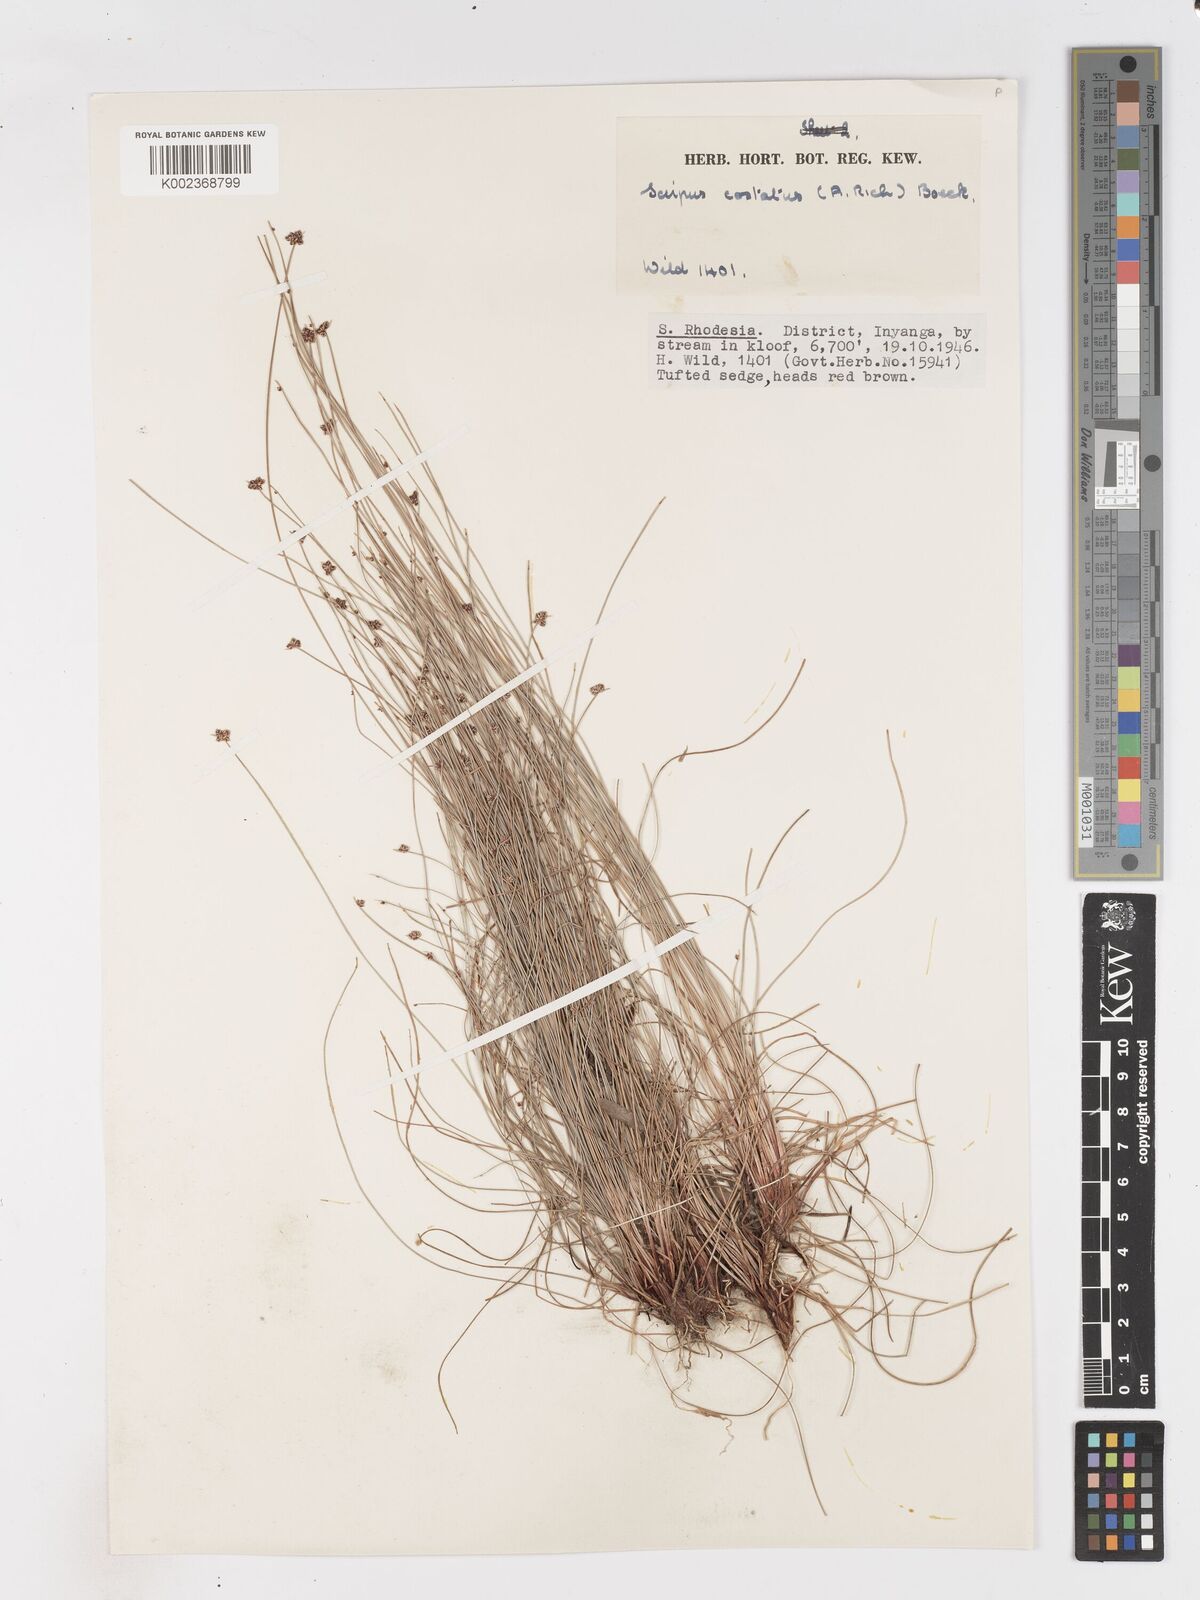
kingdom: Plantae
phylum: Tracheophyta
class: Liliopsida
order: Poales
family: Cyperaceae
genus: Isolepis
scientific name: Isolepis costata
